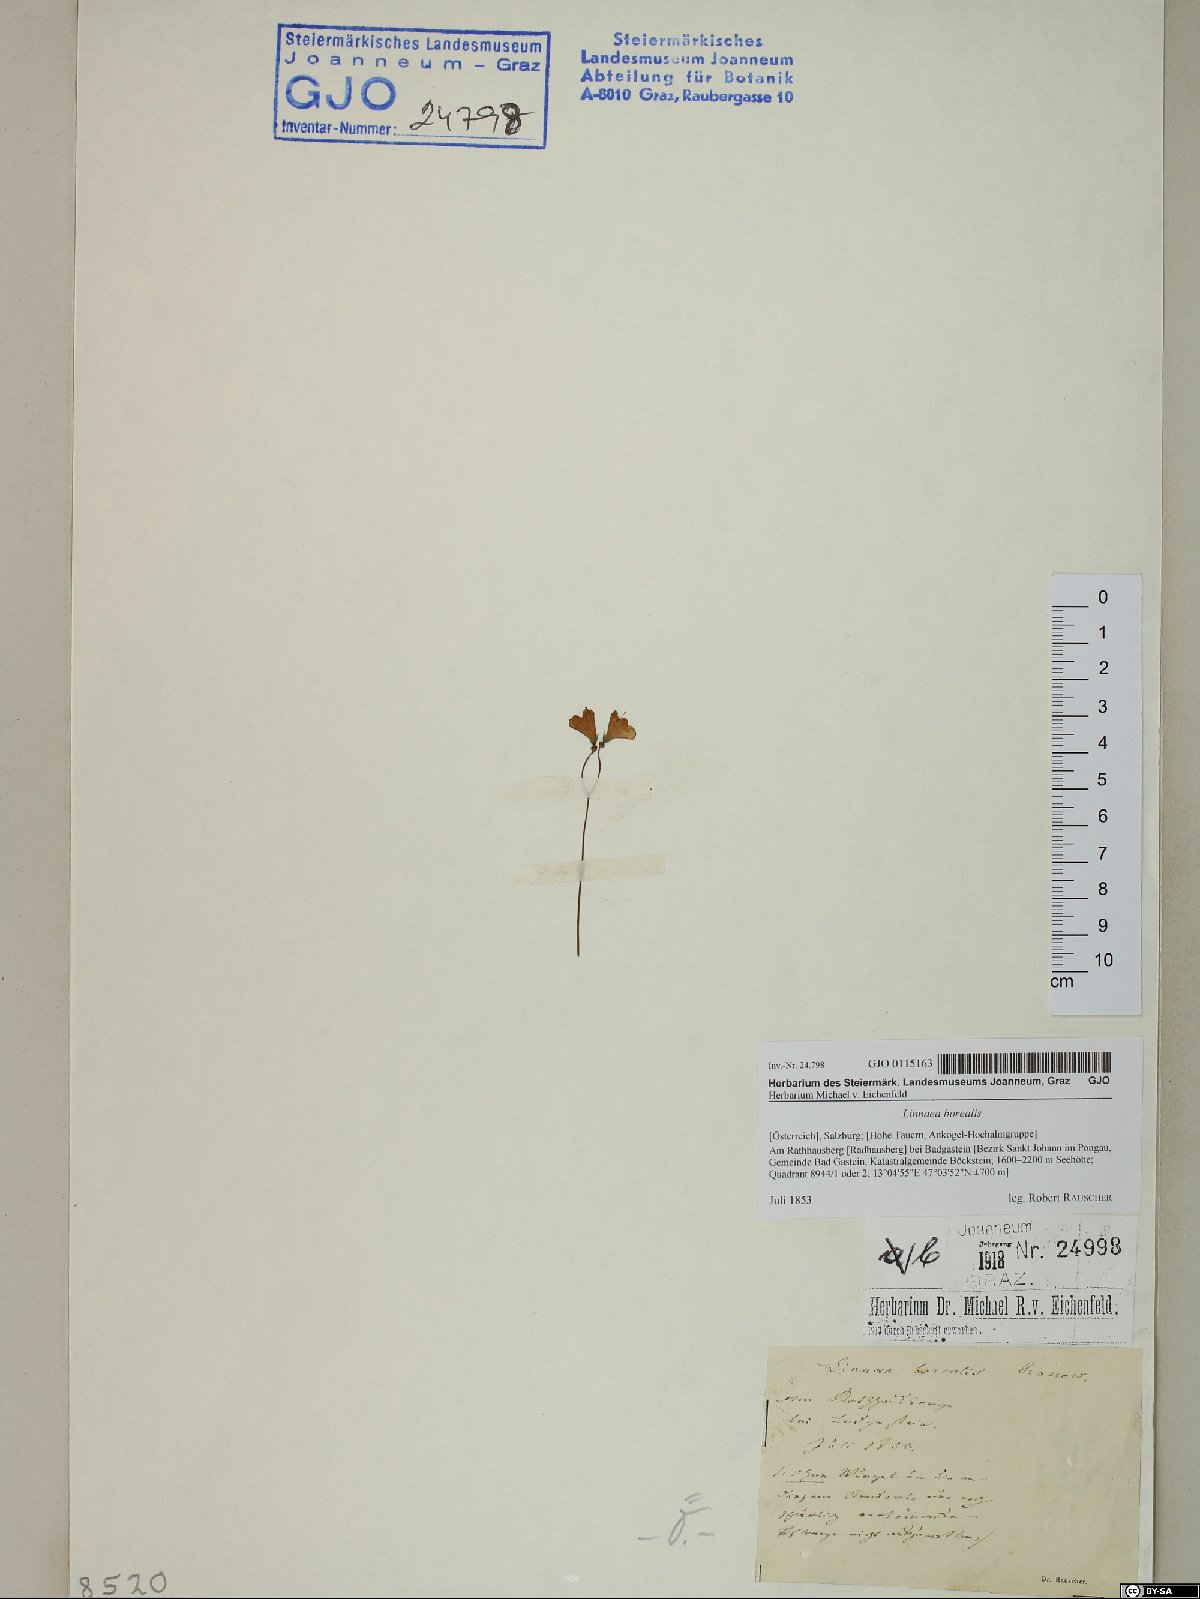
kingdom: Plantae
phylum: Tracheophyta
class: Magnoliopsida
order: Dipsacales
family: Caprifoliaceae
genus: Linnaea
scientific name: Linnaea borealis
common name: Twinflower
